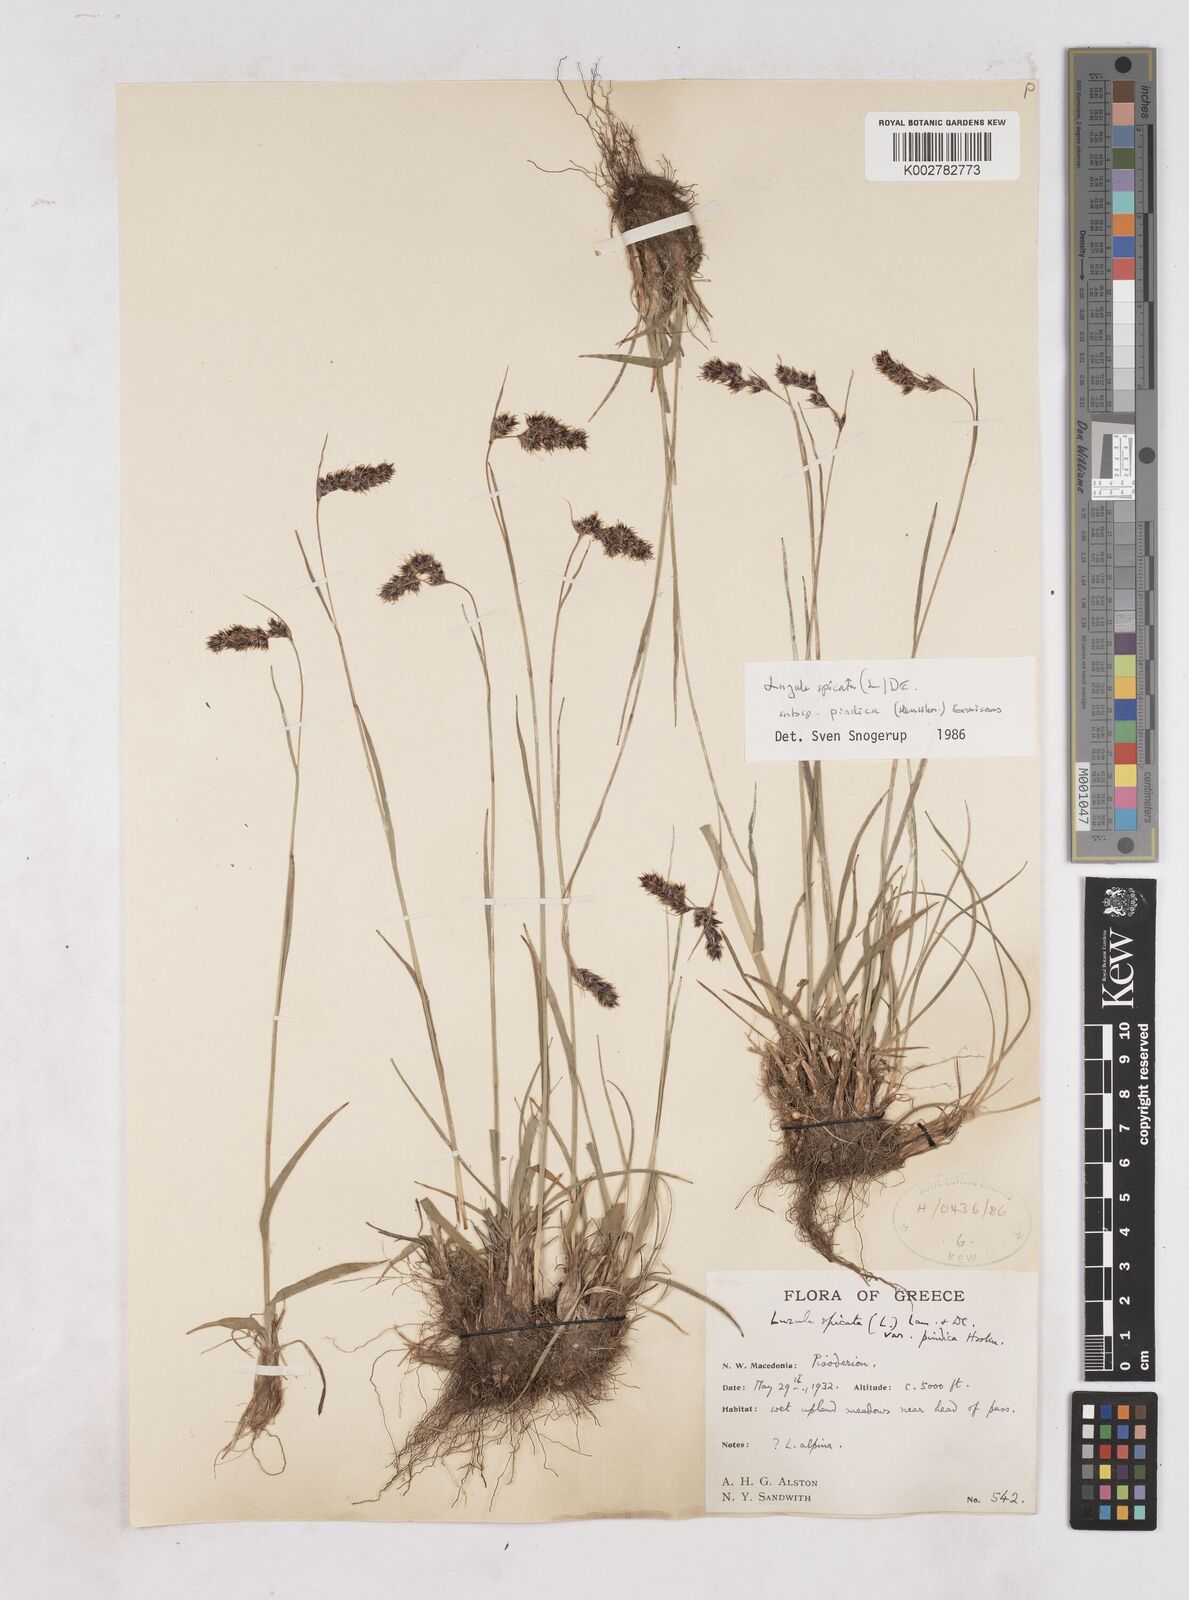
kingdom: Plantae
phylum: Tracheophyta
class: Liliopsida
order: Poales
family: Juncaceae
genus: Luzula
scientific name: Luzula pindica
